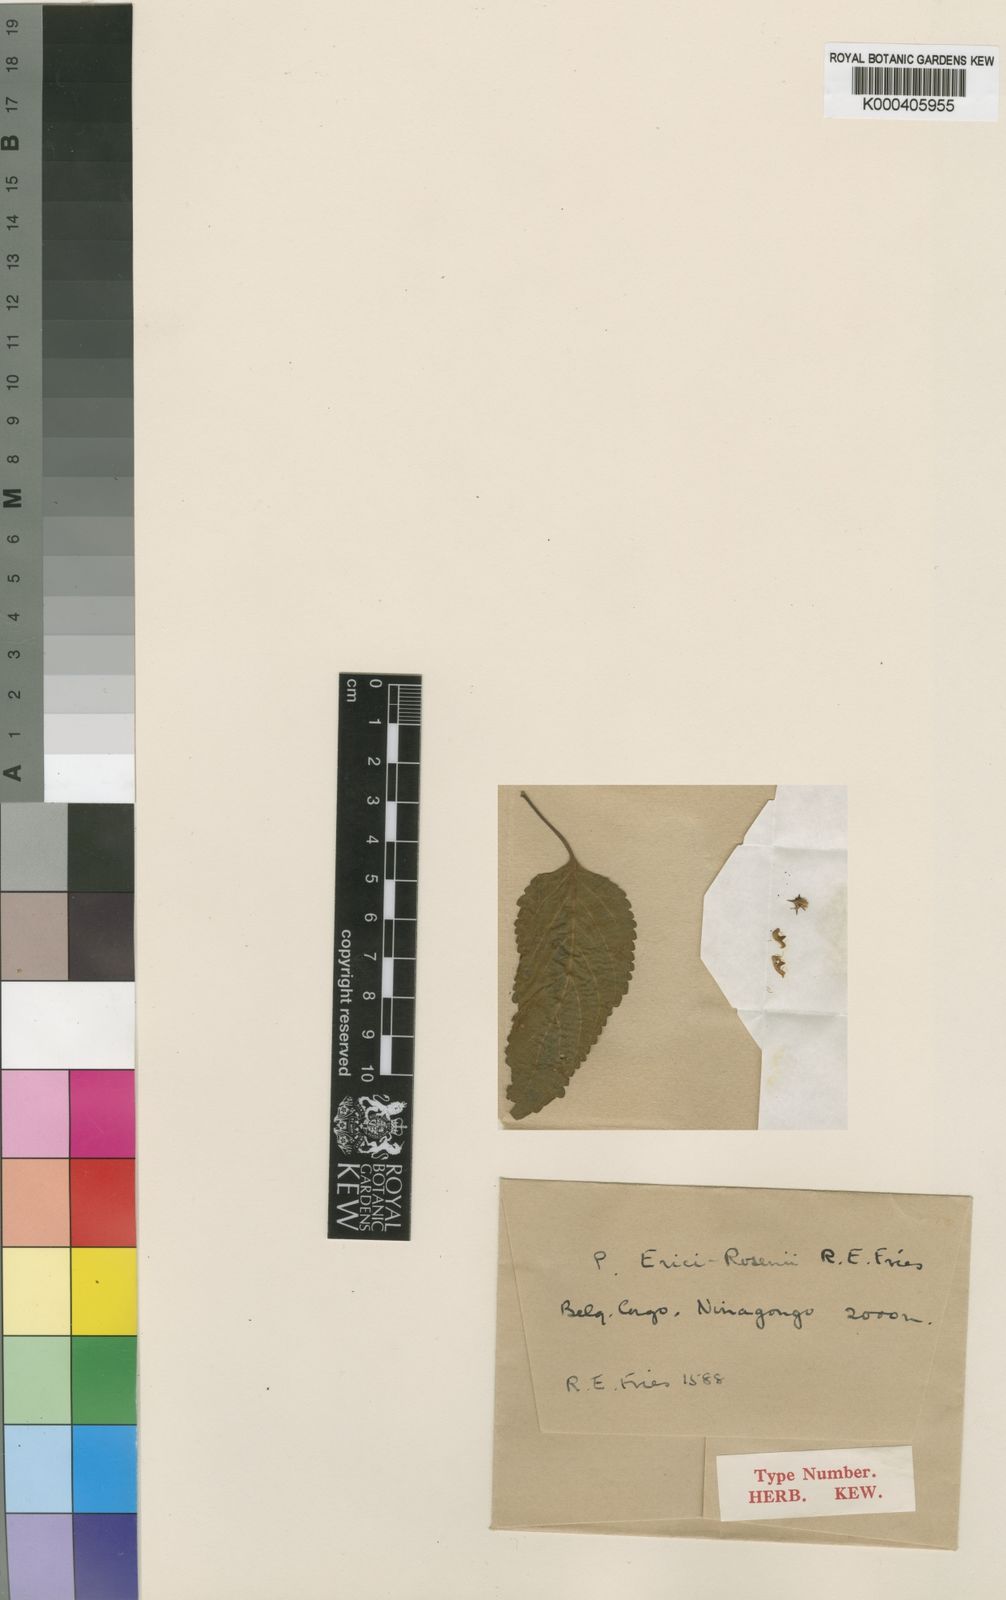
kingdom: Plantae
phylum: Tracheophyta
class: Magnoliopsida
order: Lamiales
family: Lamiaceae
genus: Coleus
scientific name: Coleus erici-rosenii
